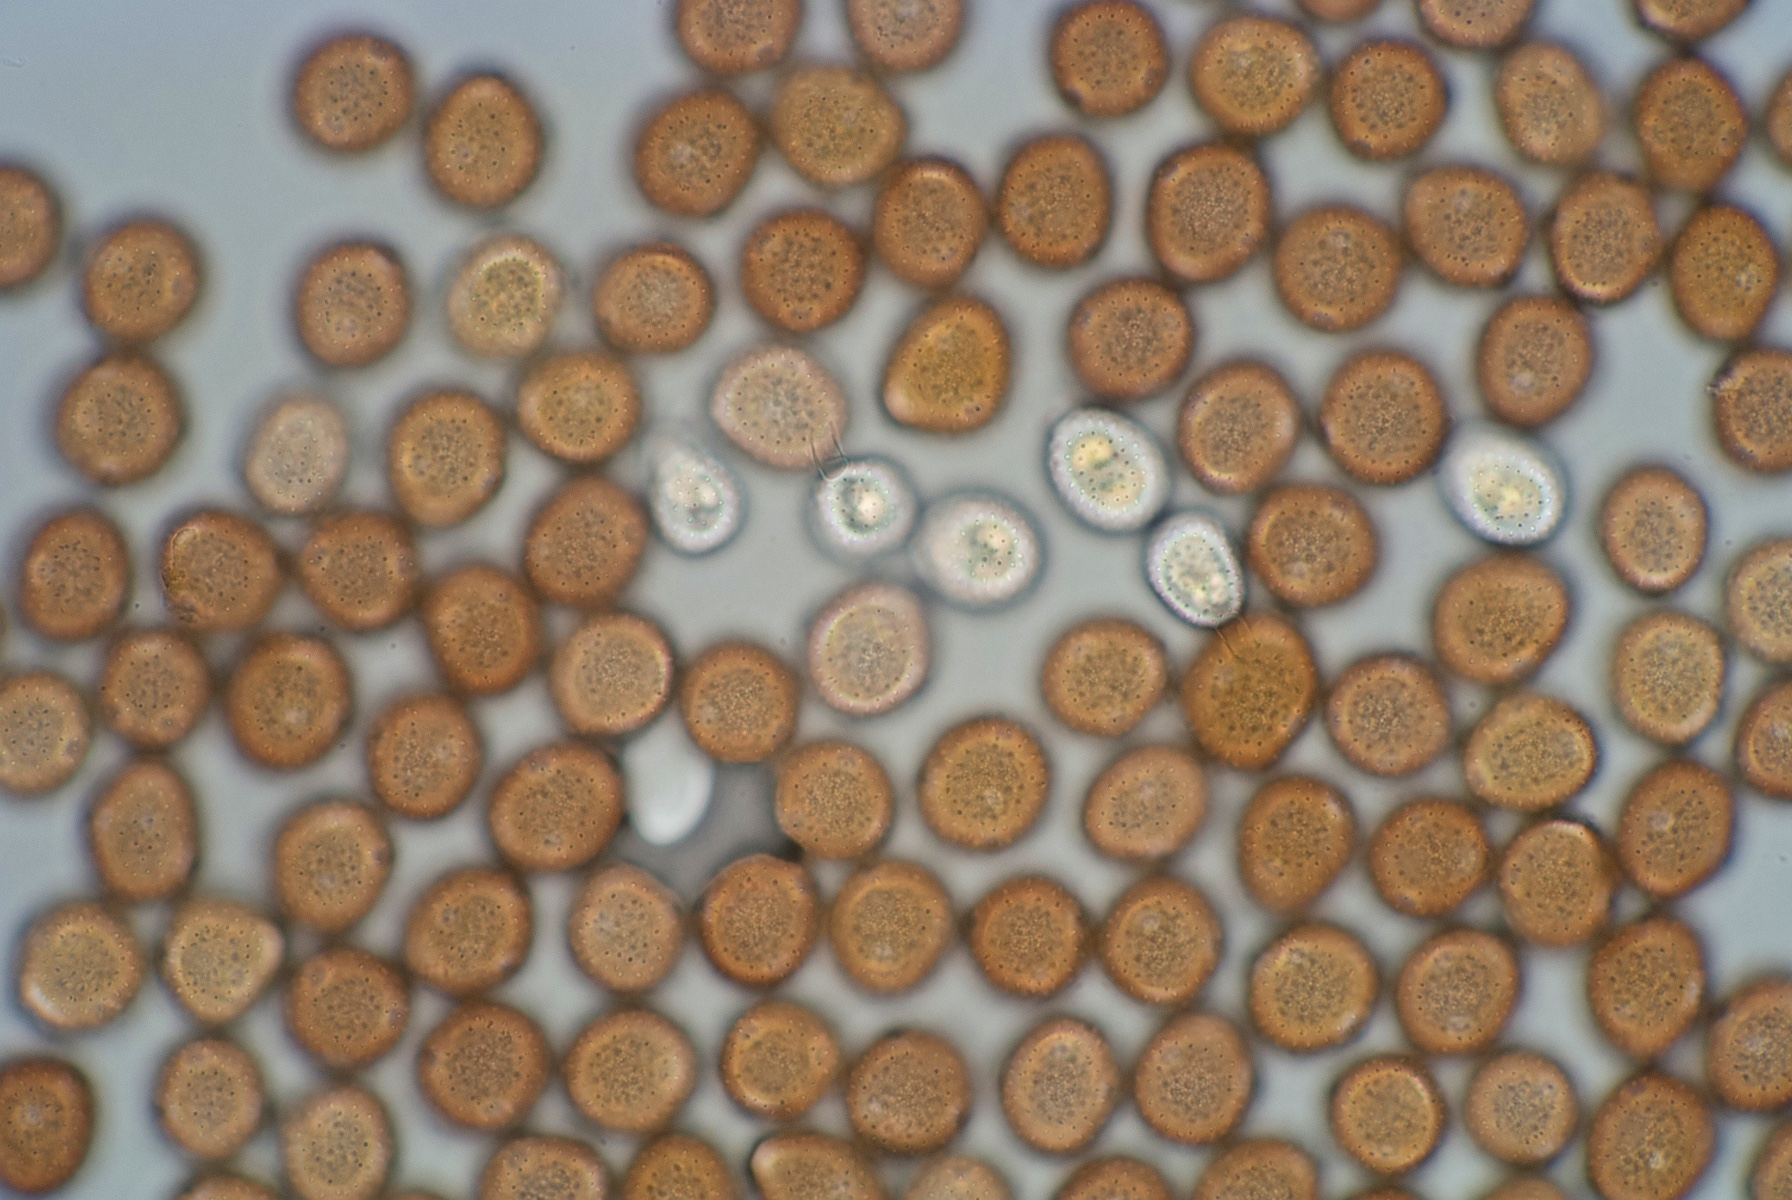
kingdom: Fungi
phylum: Basidiomycota
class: Pucciniomycetes
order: Pucciniales
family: Pucciniaceae
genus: Uromyces
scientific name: Uromyces trifolii-repentis
